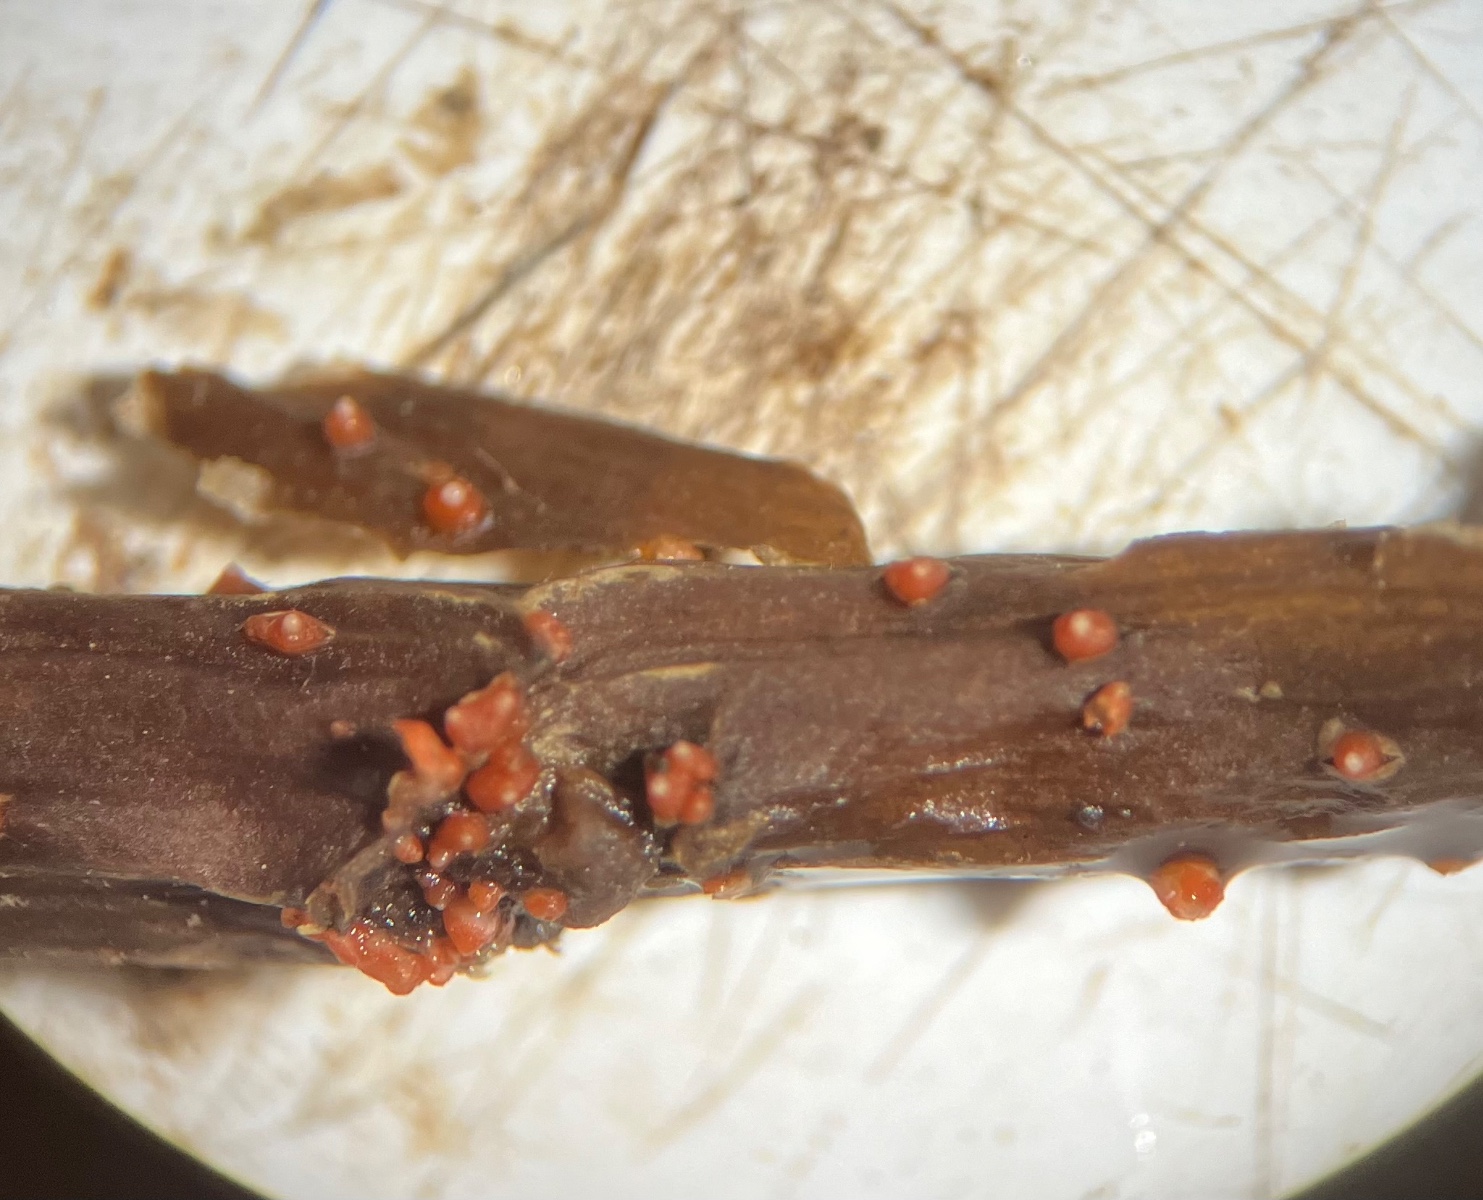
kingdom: Fungi
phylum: Ascomycota
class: Sordariomycetes
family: Thyridiaceae
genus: Thyronectria
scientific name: Thyronectria sinopica
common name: vedbend-cinnobersvamp
